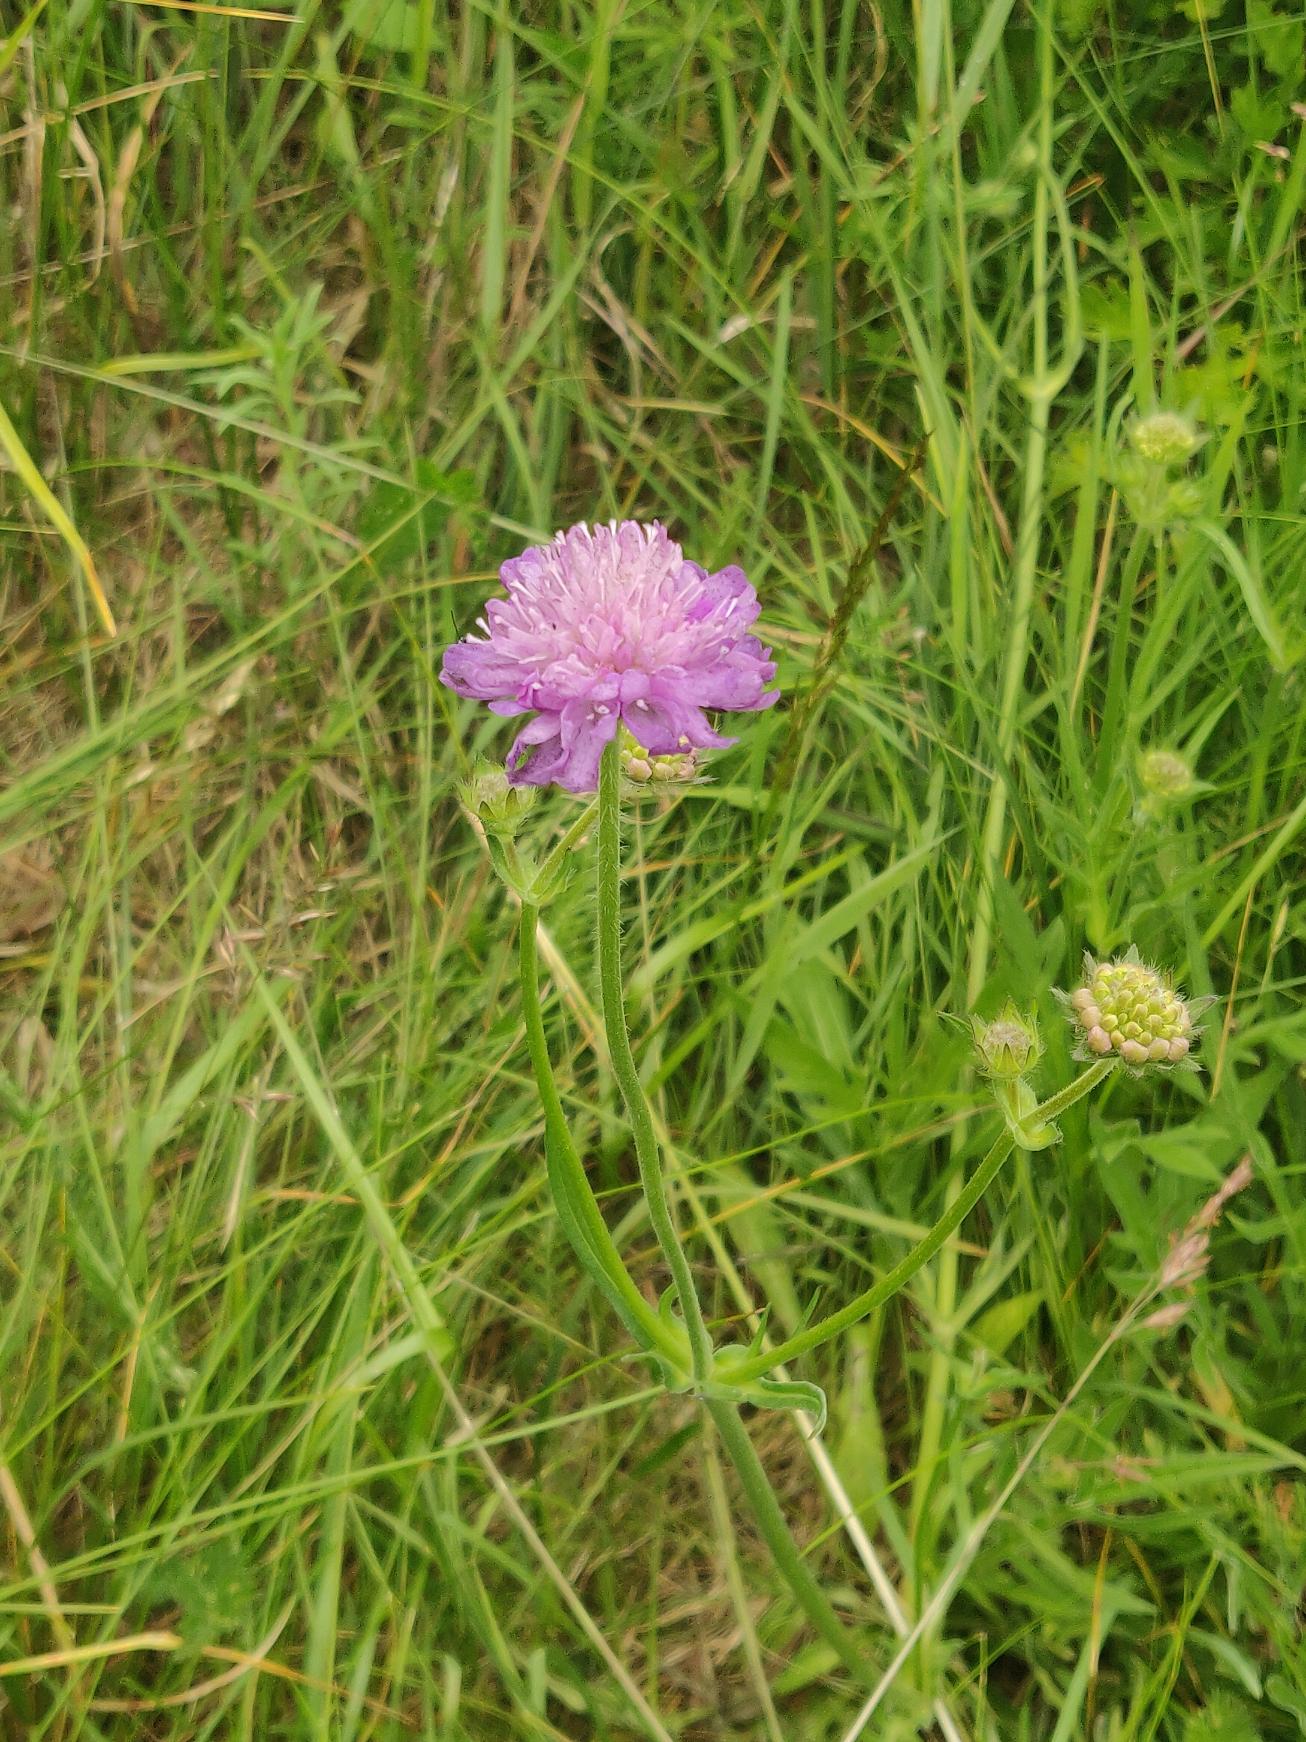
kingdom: Plantae
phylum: Tracheophyta
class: Magnoliopsida
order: Dipsacales
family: Caprifoliaceae
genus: Knautia
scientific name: Knautia arvensis
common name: Blåhat
